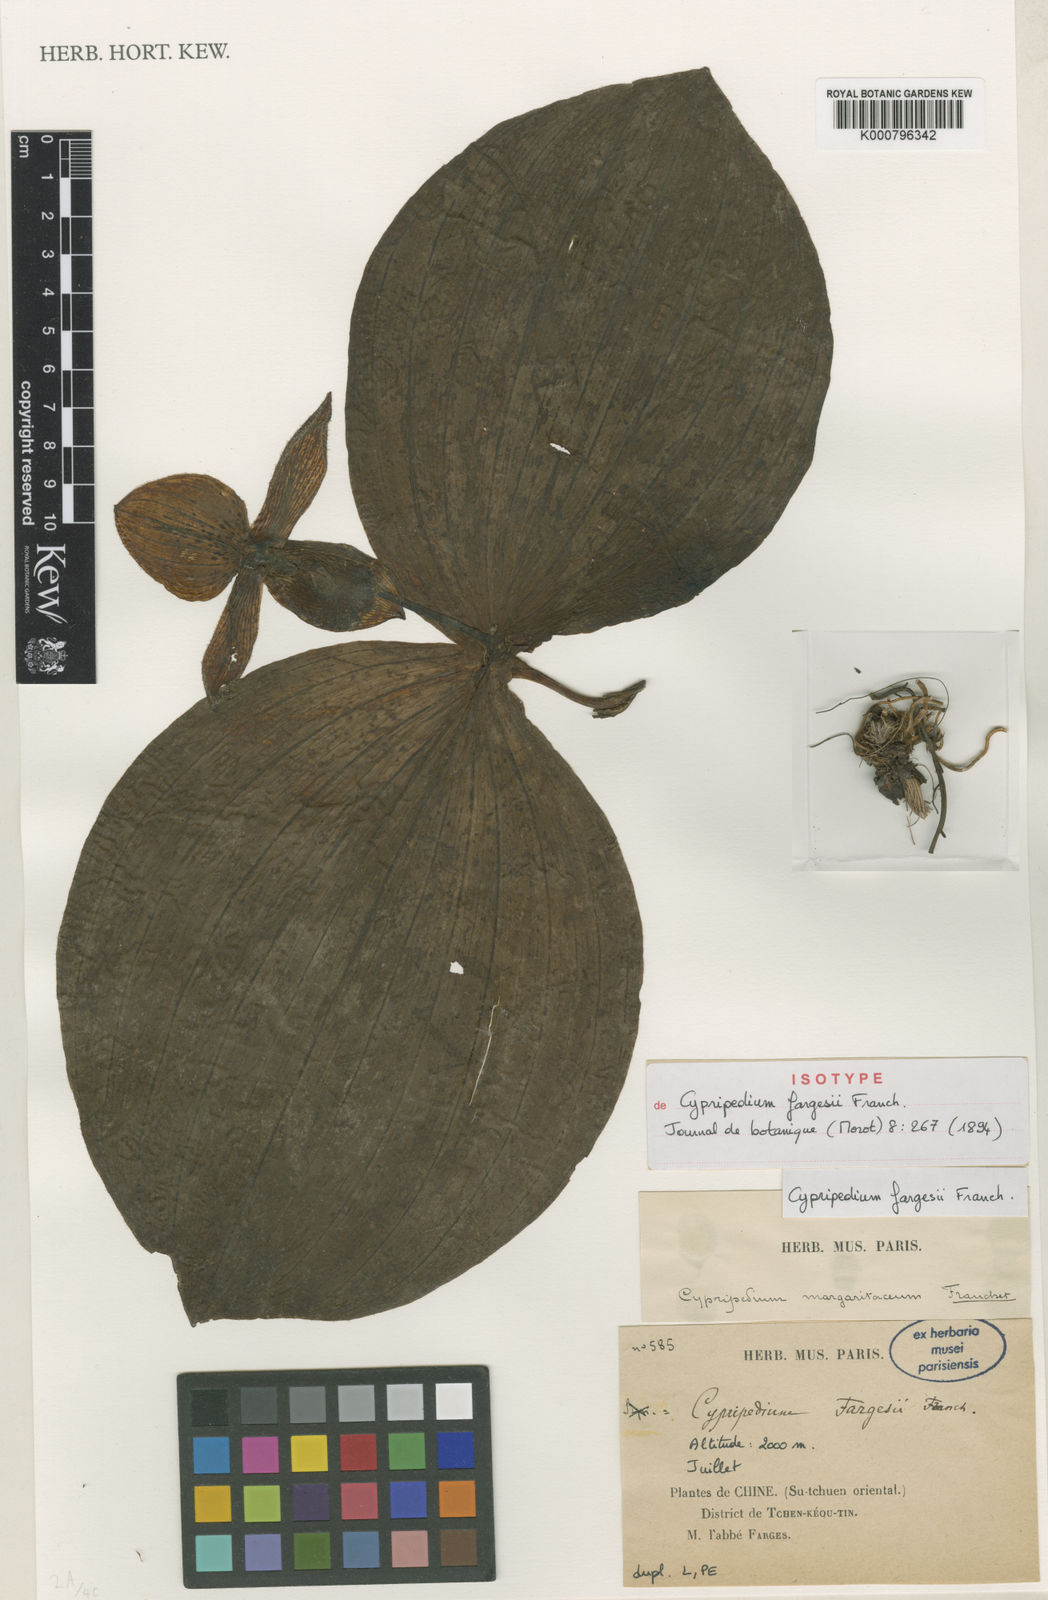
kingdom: Plantae
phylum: Tracheophyta
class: Liliopsida
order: Asparagales
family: Orchidaceae
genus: Cypripedium
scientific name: Cypripedium fargesii
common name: Farges' cypripedium
